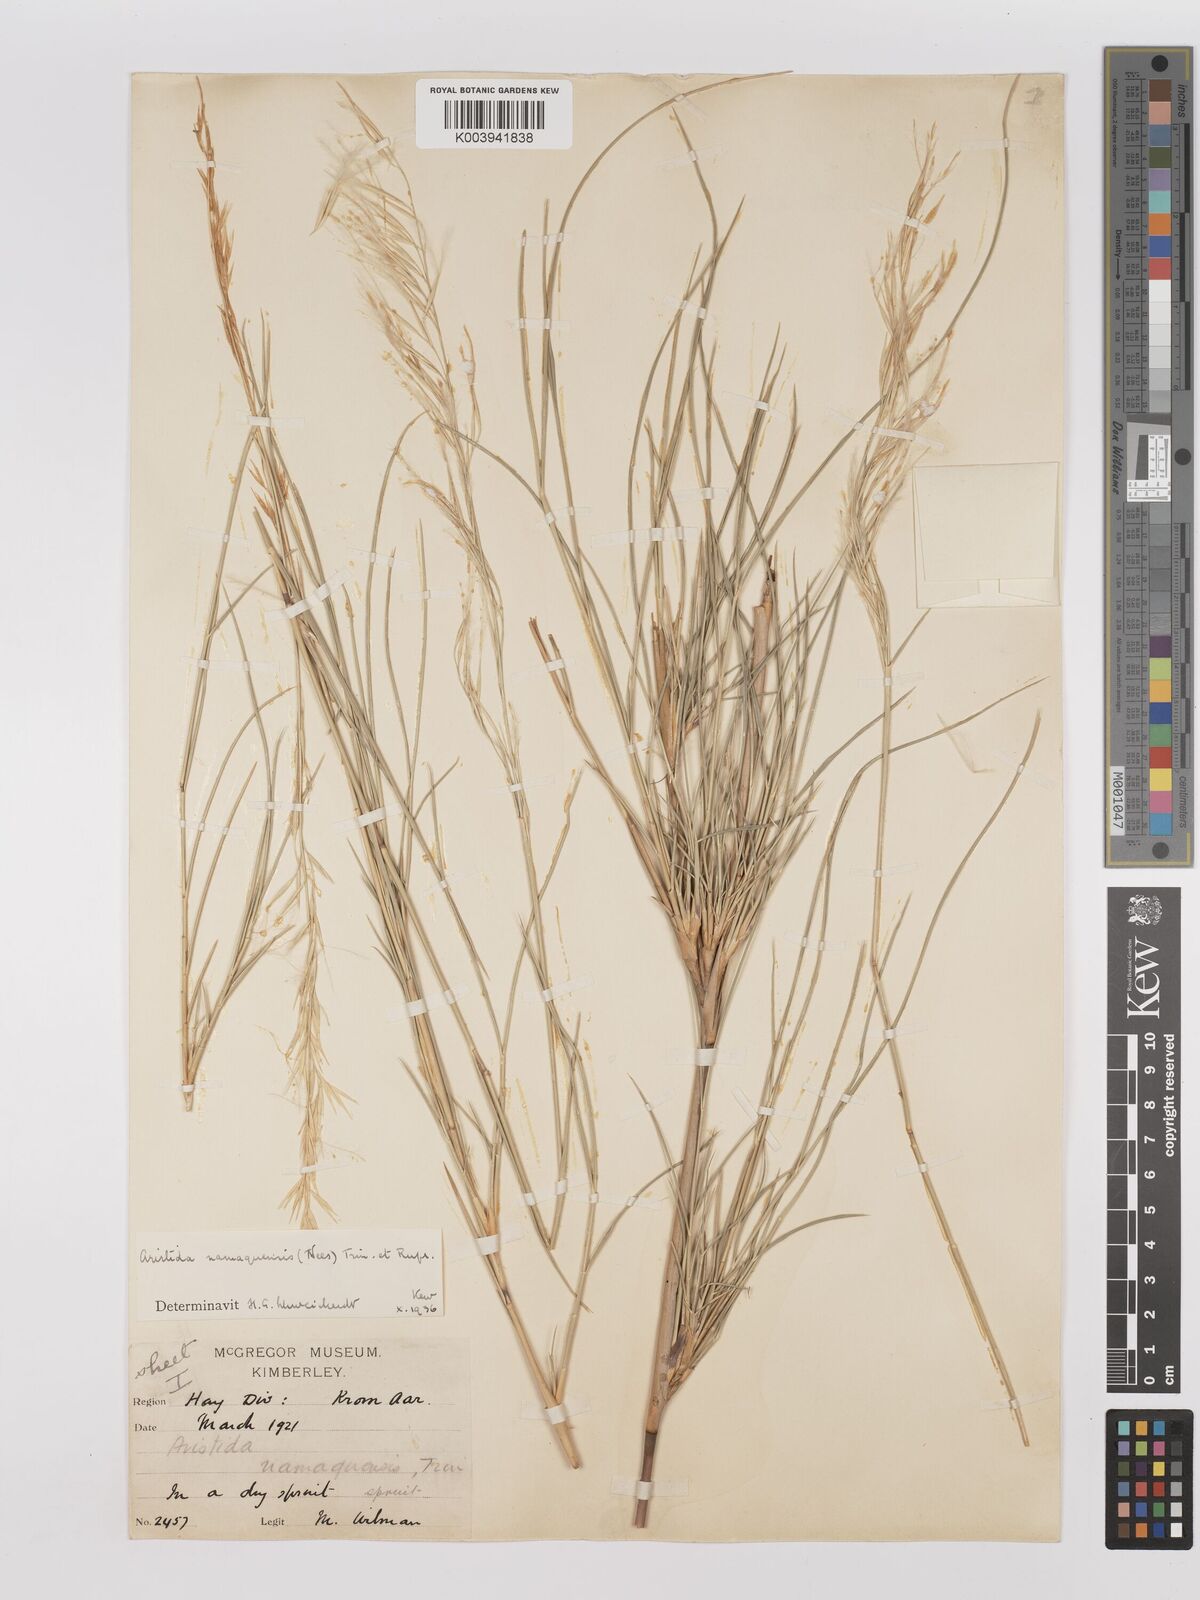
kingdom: Plantae
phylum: Tracheophyta
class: Liliopsida
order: Poales
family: Poaceae
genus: Stipagrostis
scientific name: Stipagrostis namaquensis
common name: River bushman grass
